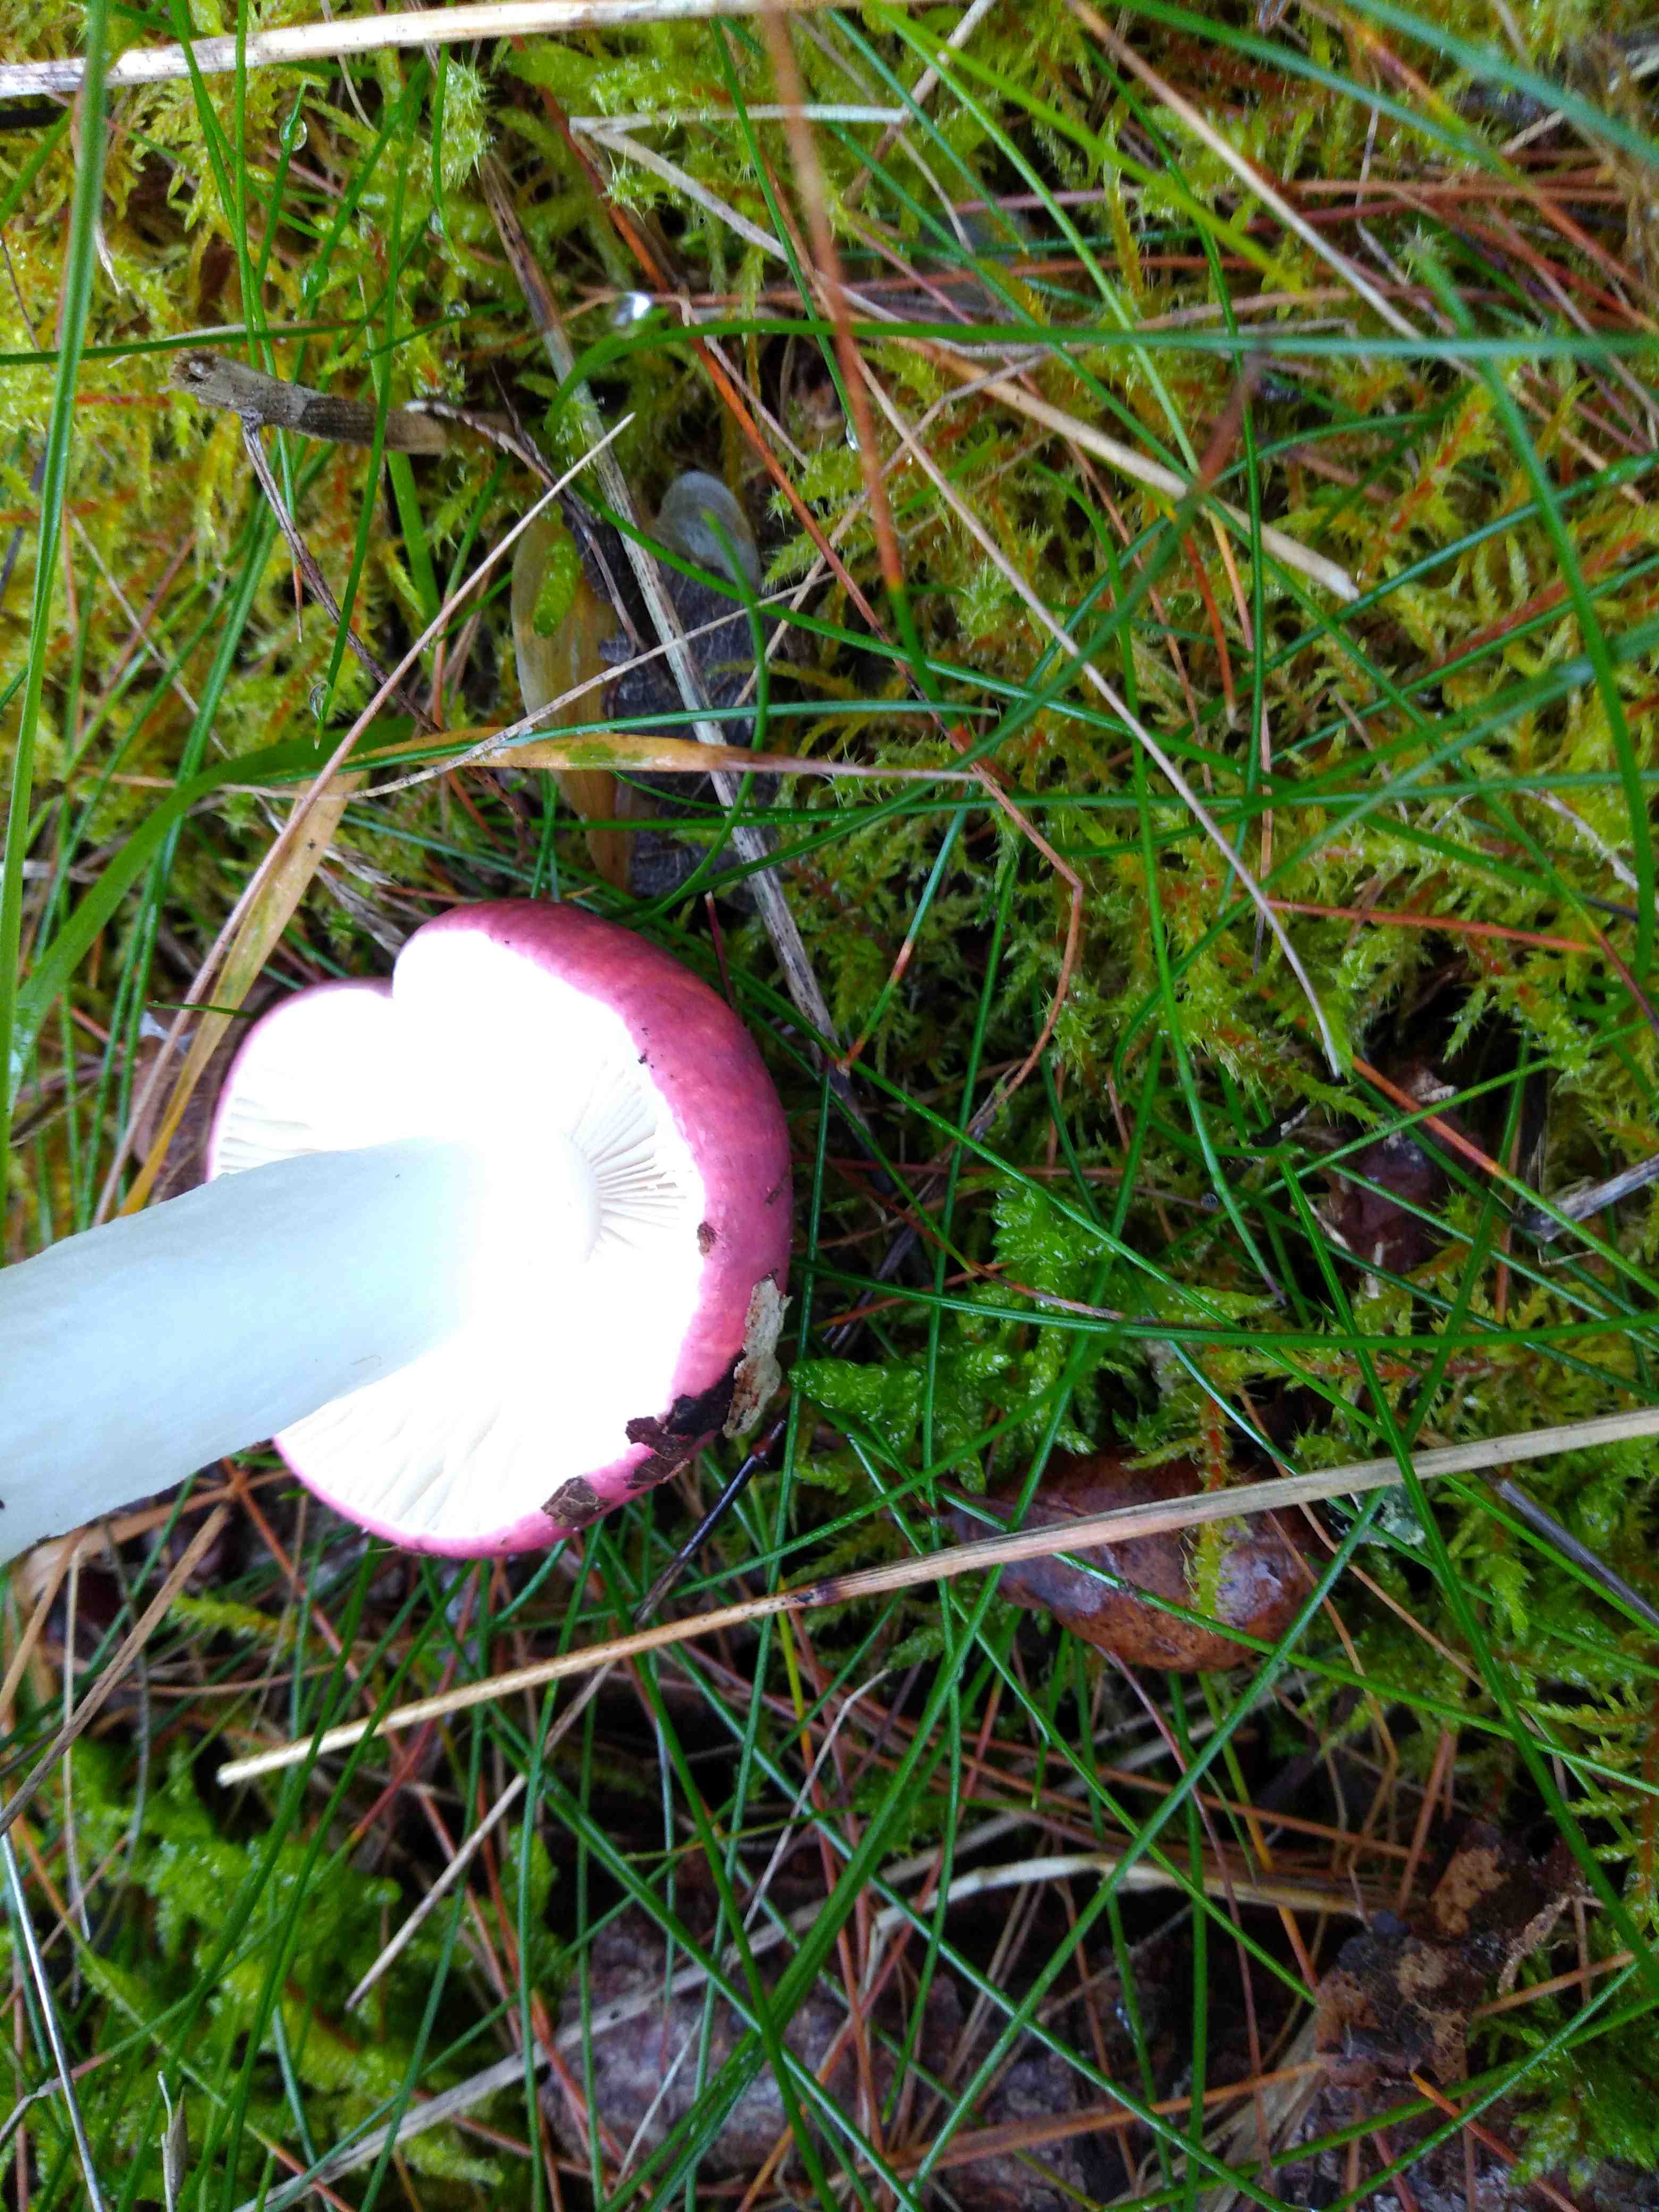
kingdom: Fungi
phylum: Basidiomycota
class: Agaricomycetes
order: Russulales
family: Russulaceae
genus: Russula
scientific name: Russula
